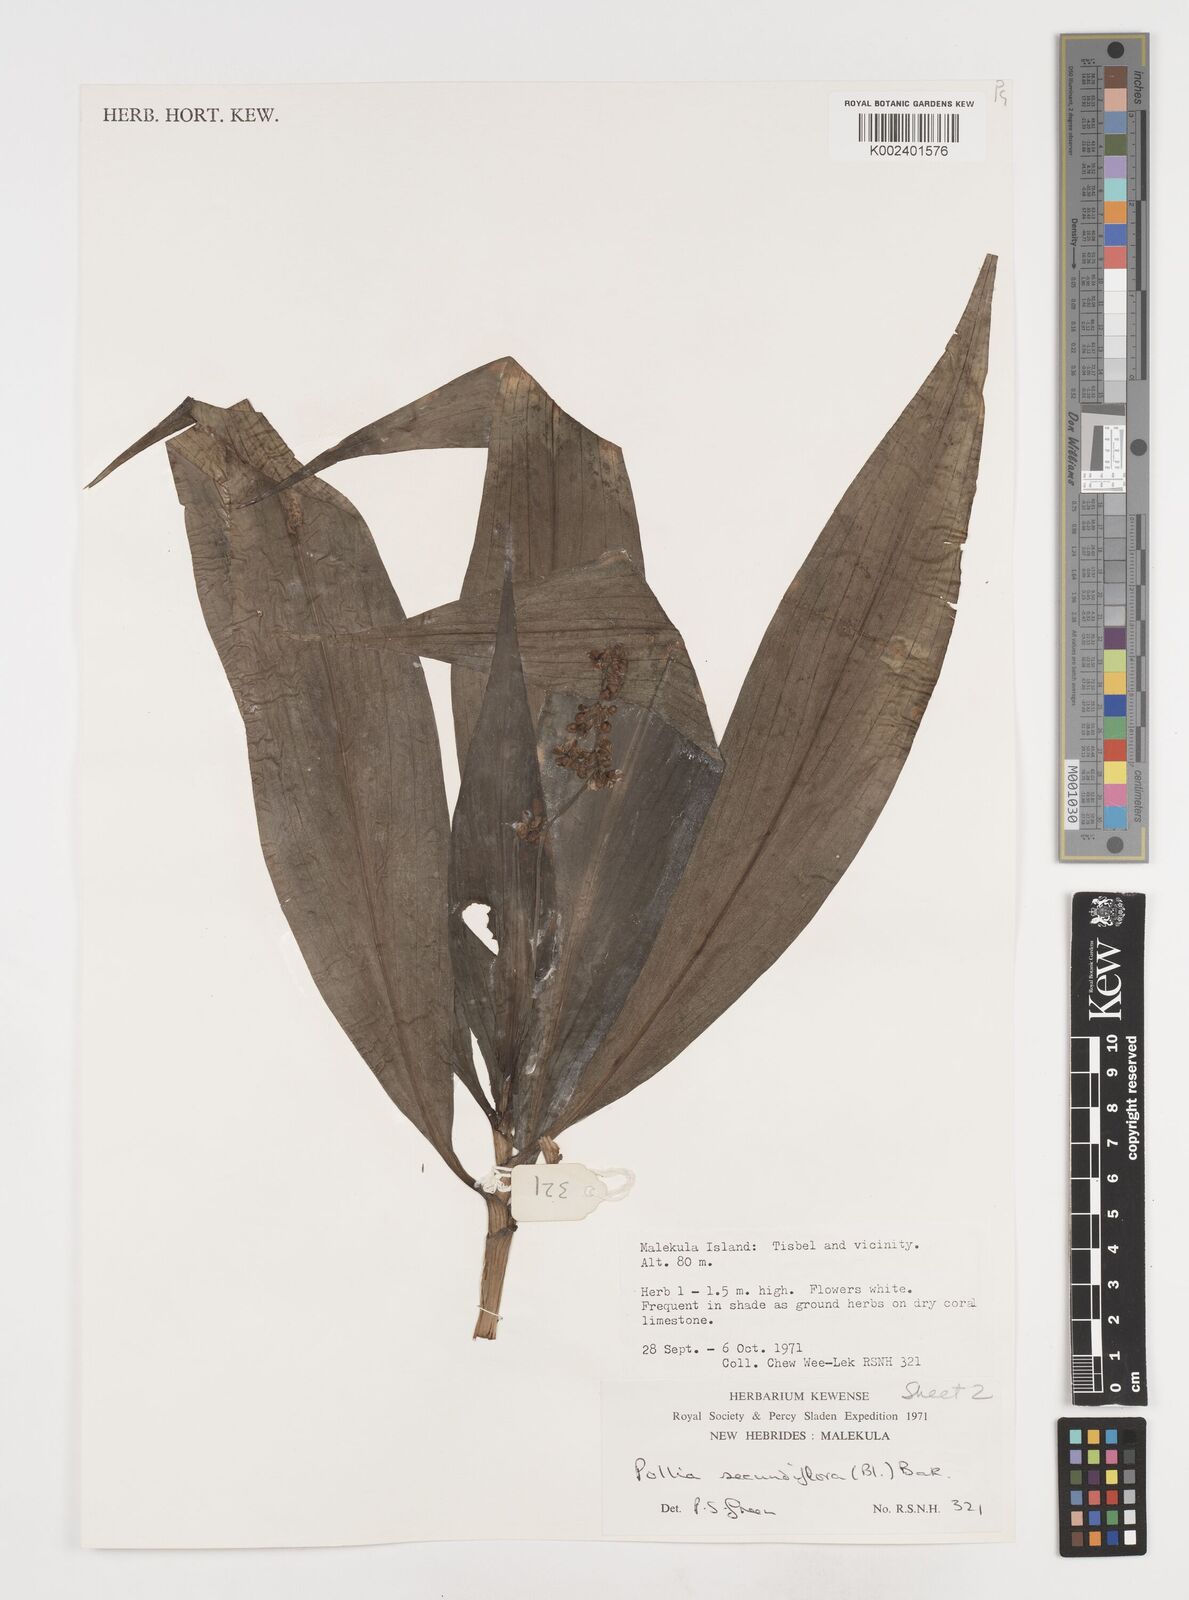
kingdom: Plantae
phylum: Tracheophyta
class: Liliopsida
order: Commelinales
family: Commelinaceae
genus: Pollia
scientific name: Pollia secundiflora
